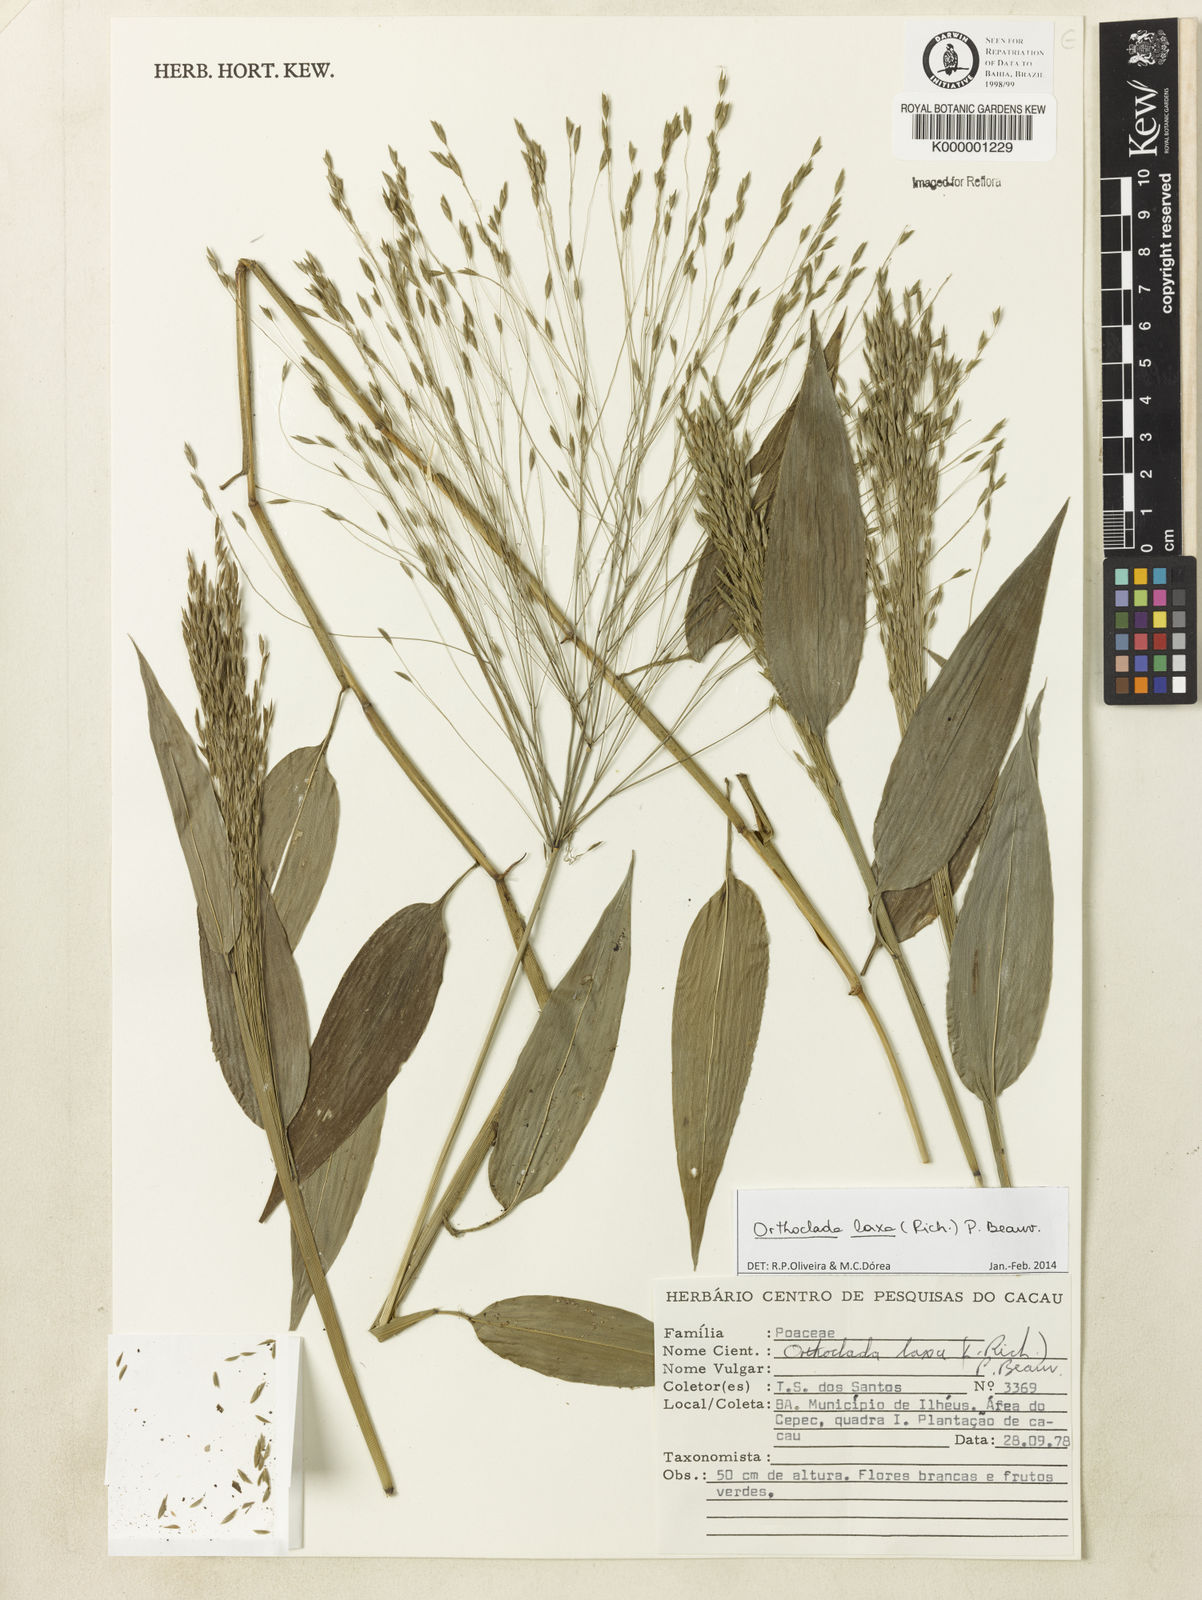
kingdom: Plantae
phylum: Tracheophyta
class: Liliopsida
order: Poales
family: Poaceae
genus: Orthoclada
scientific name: Orthoclada laxa
